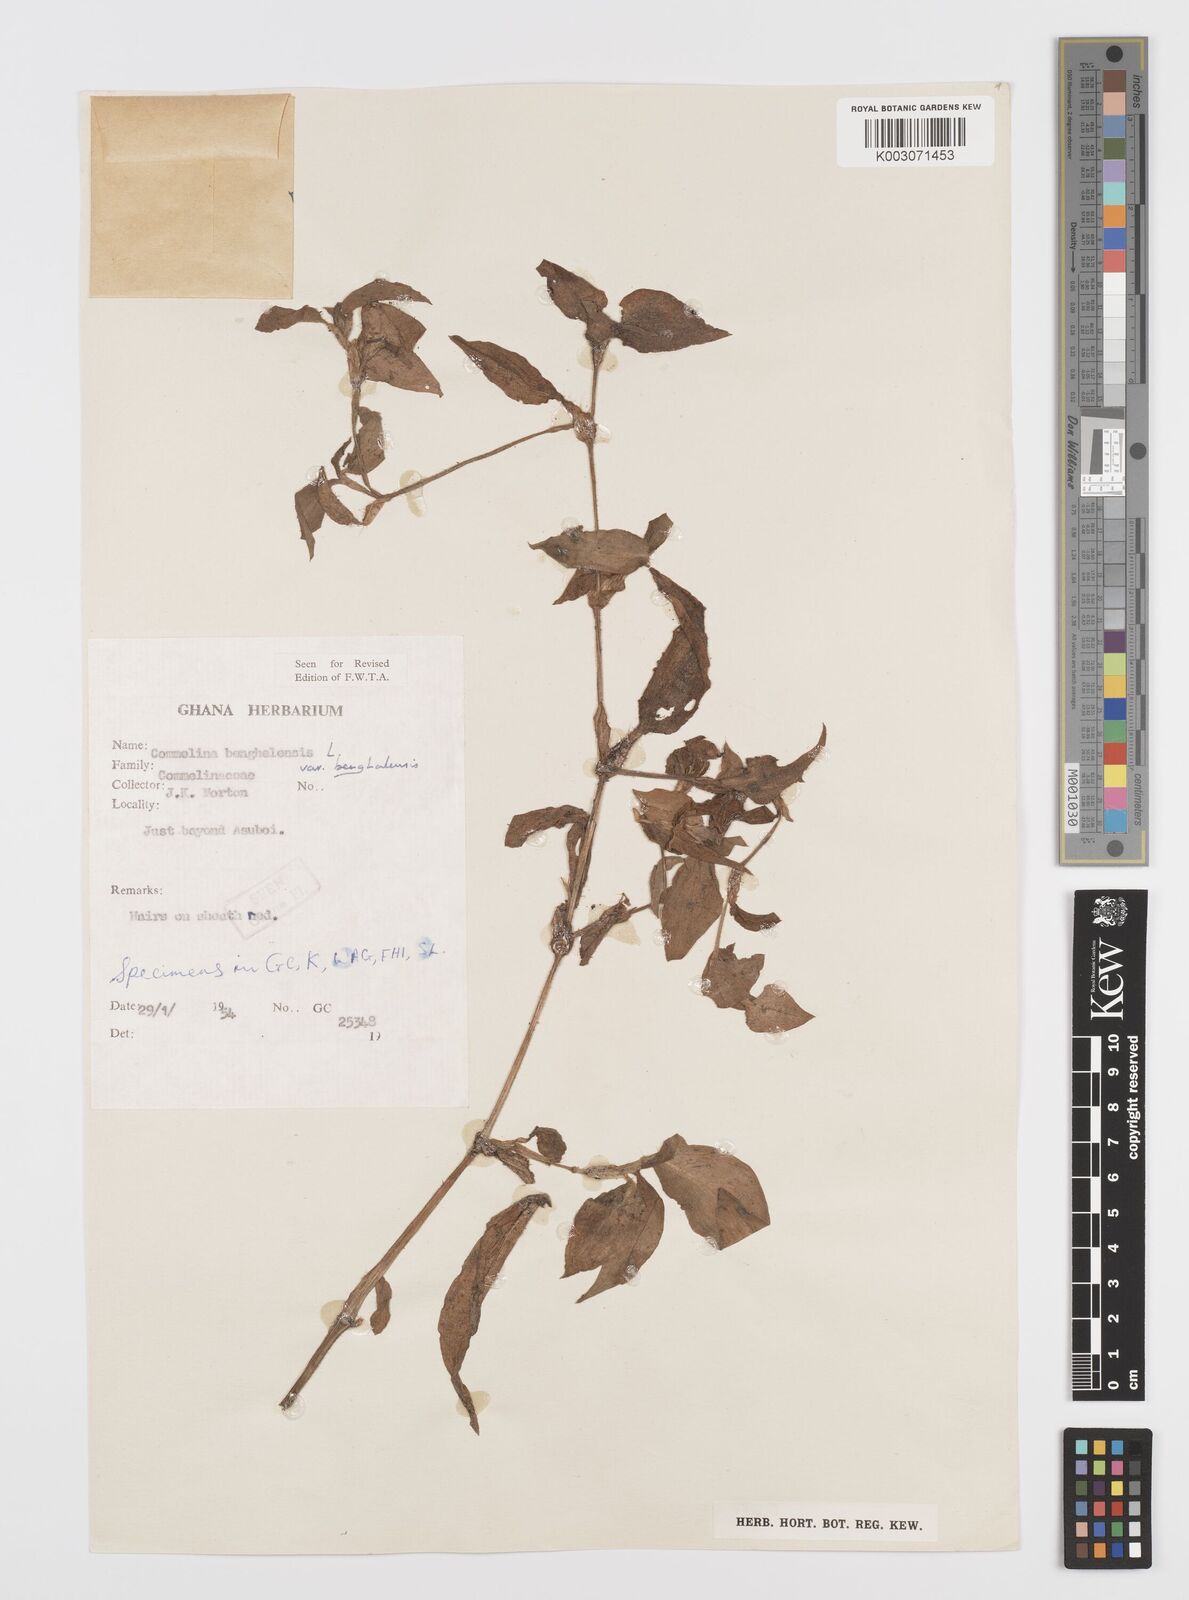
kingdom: Plantae
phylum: Tracheophyta
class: Liliopsida
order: Commelinales
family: Commelinaceae
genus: Commelina
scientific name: Commelina benghalensis
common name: Jio
